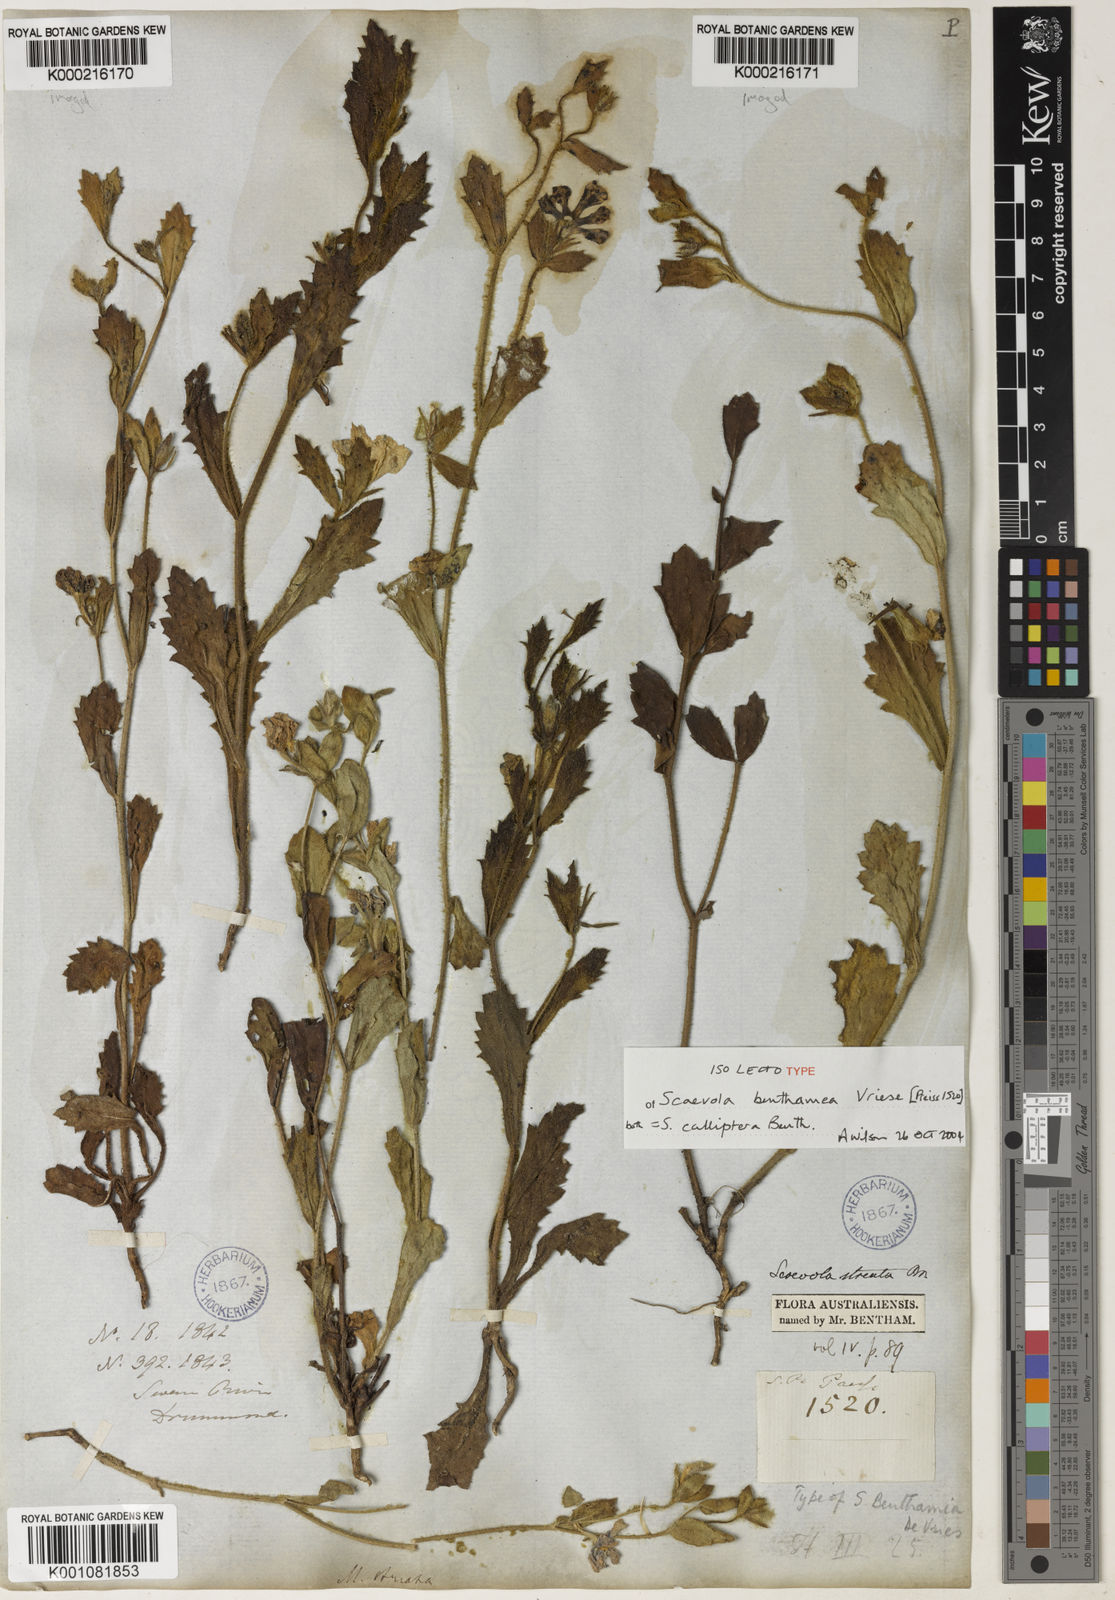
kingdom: Plantae
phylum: Tracheophyta
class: Magnoliopsida
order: Asterales
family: Goodeniaceae
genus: Scaevola
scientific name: Scaevola calliptera
